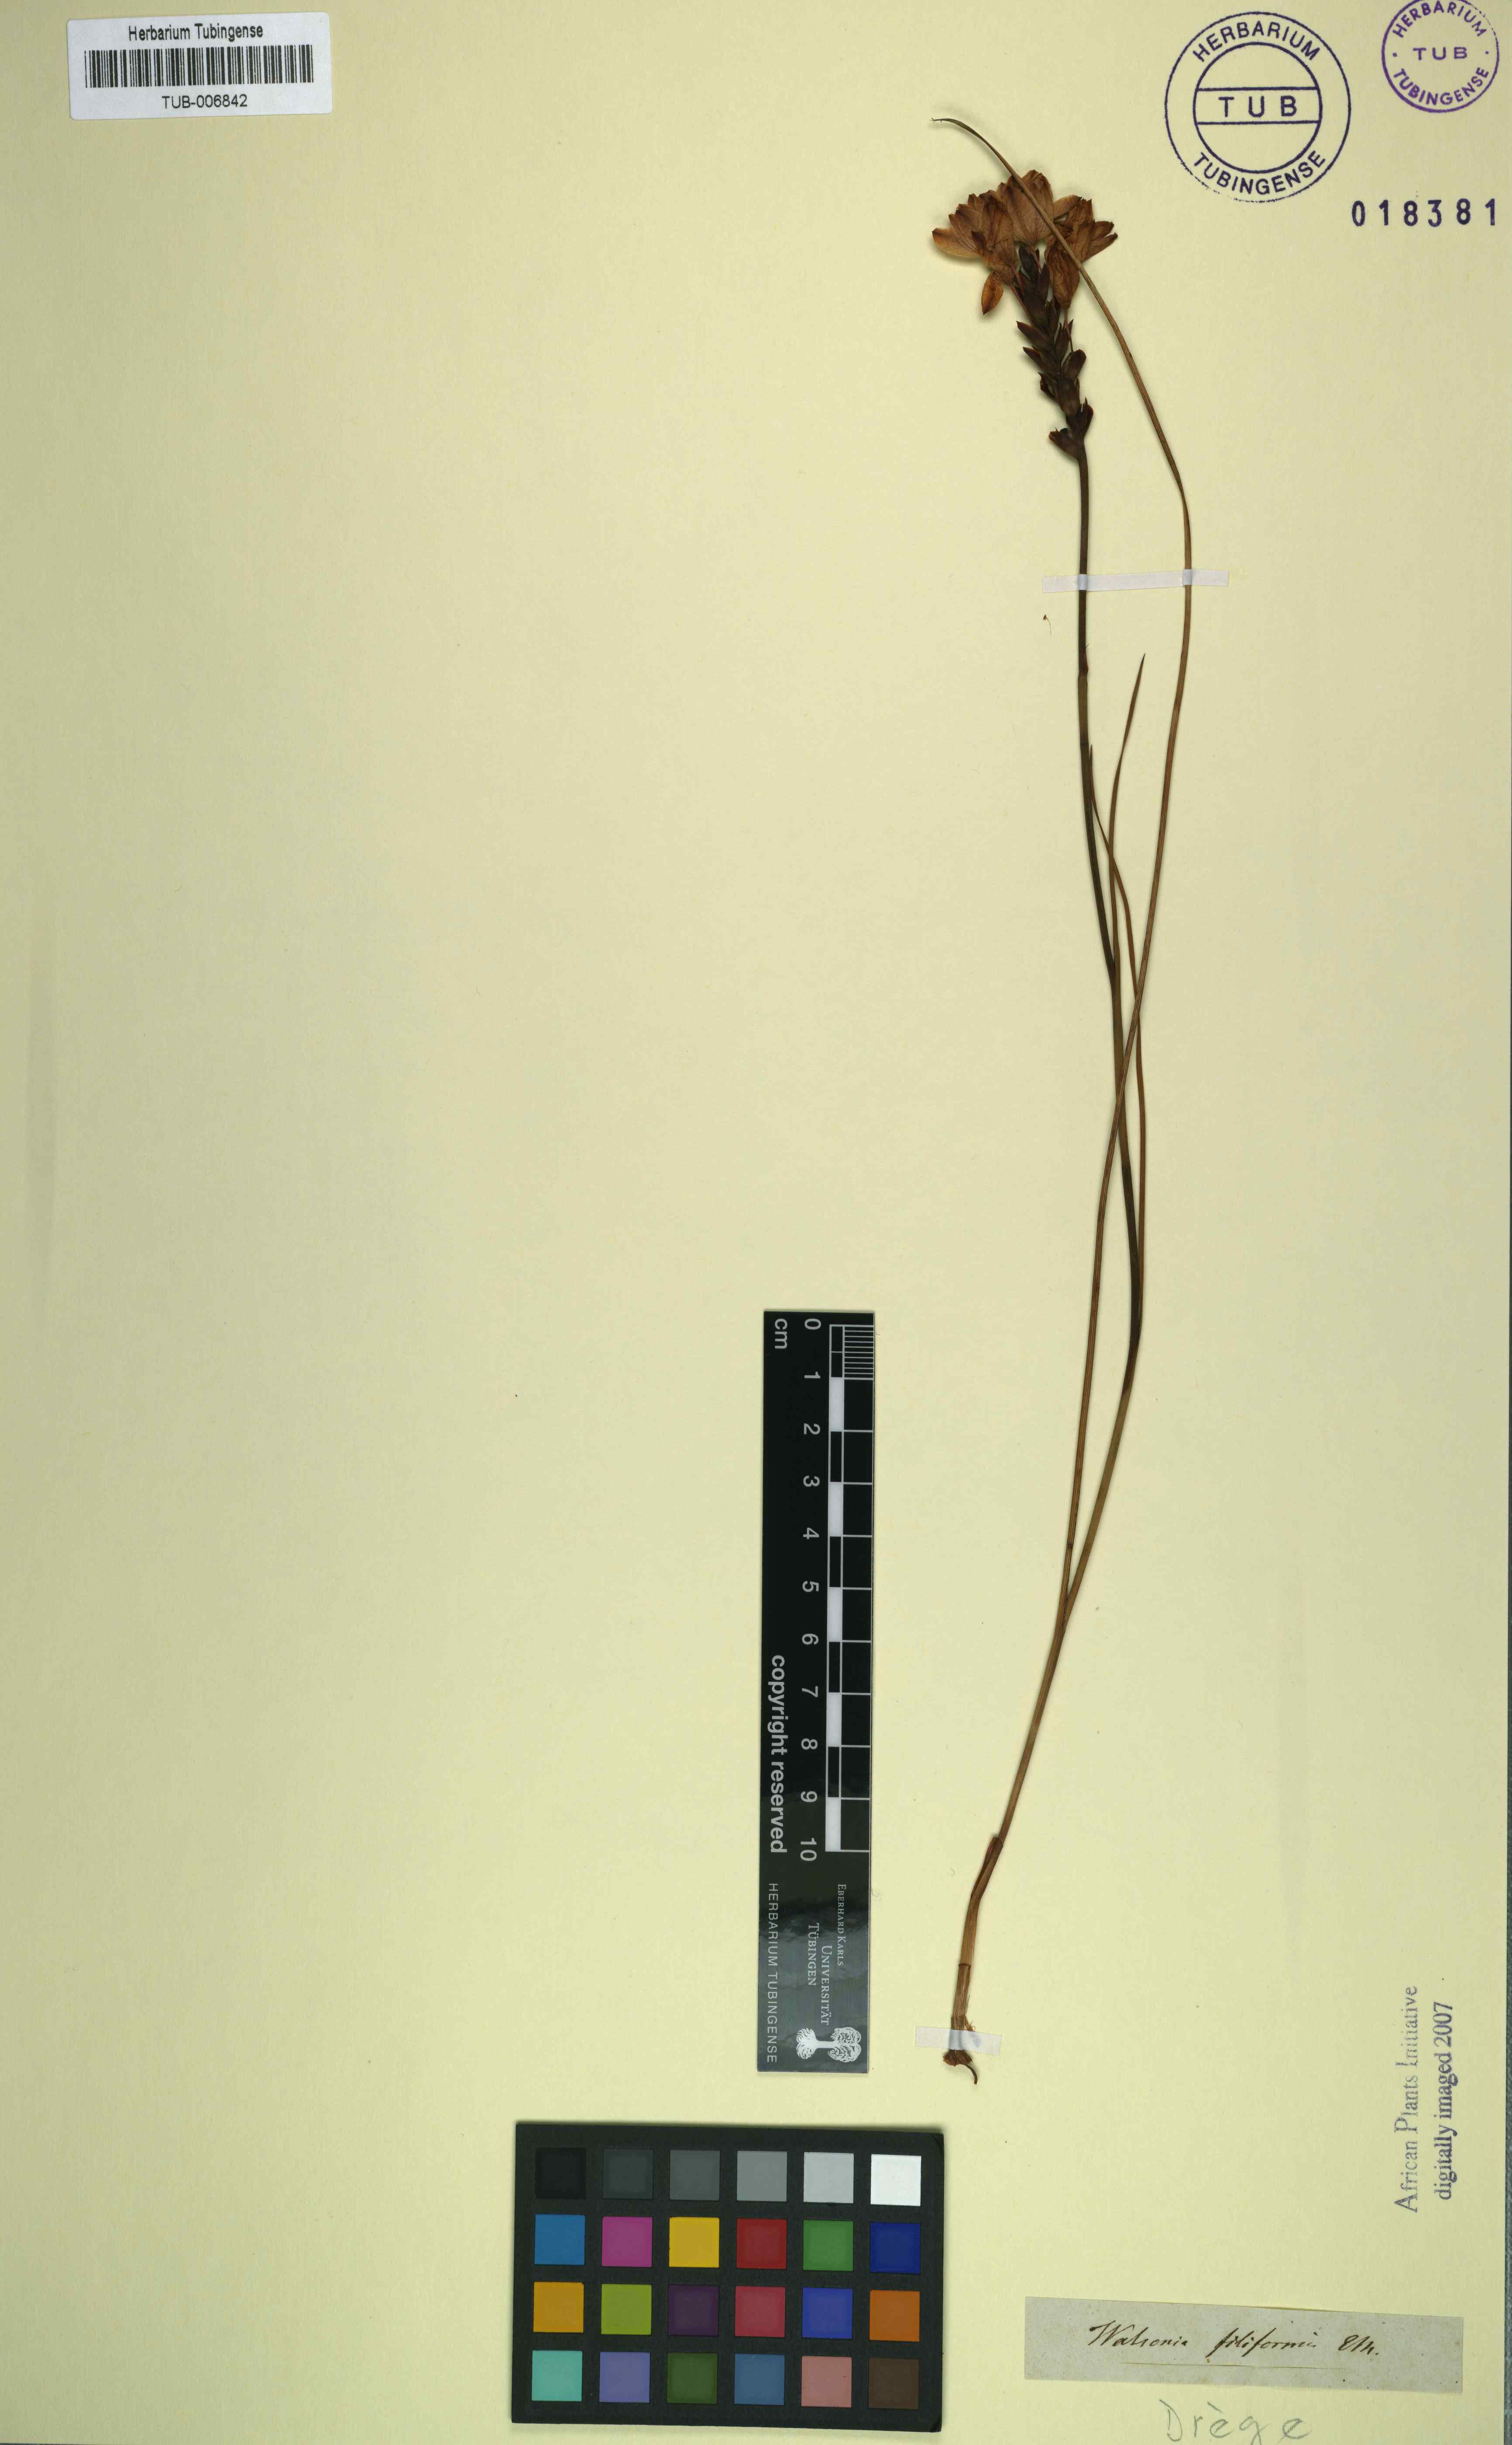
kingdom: Plantae
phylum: Tracheophyta
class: Liliopsida
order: Asparagales
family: Iridaceae
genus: Thereianthus
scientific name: Thereianthus bracteolatus
